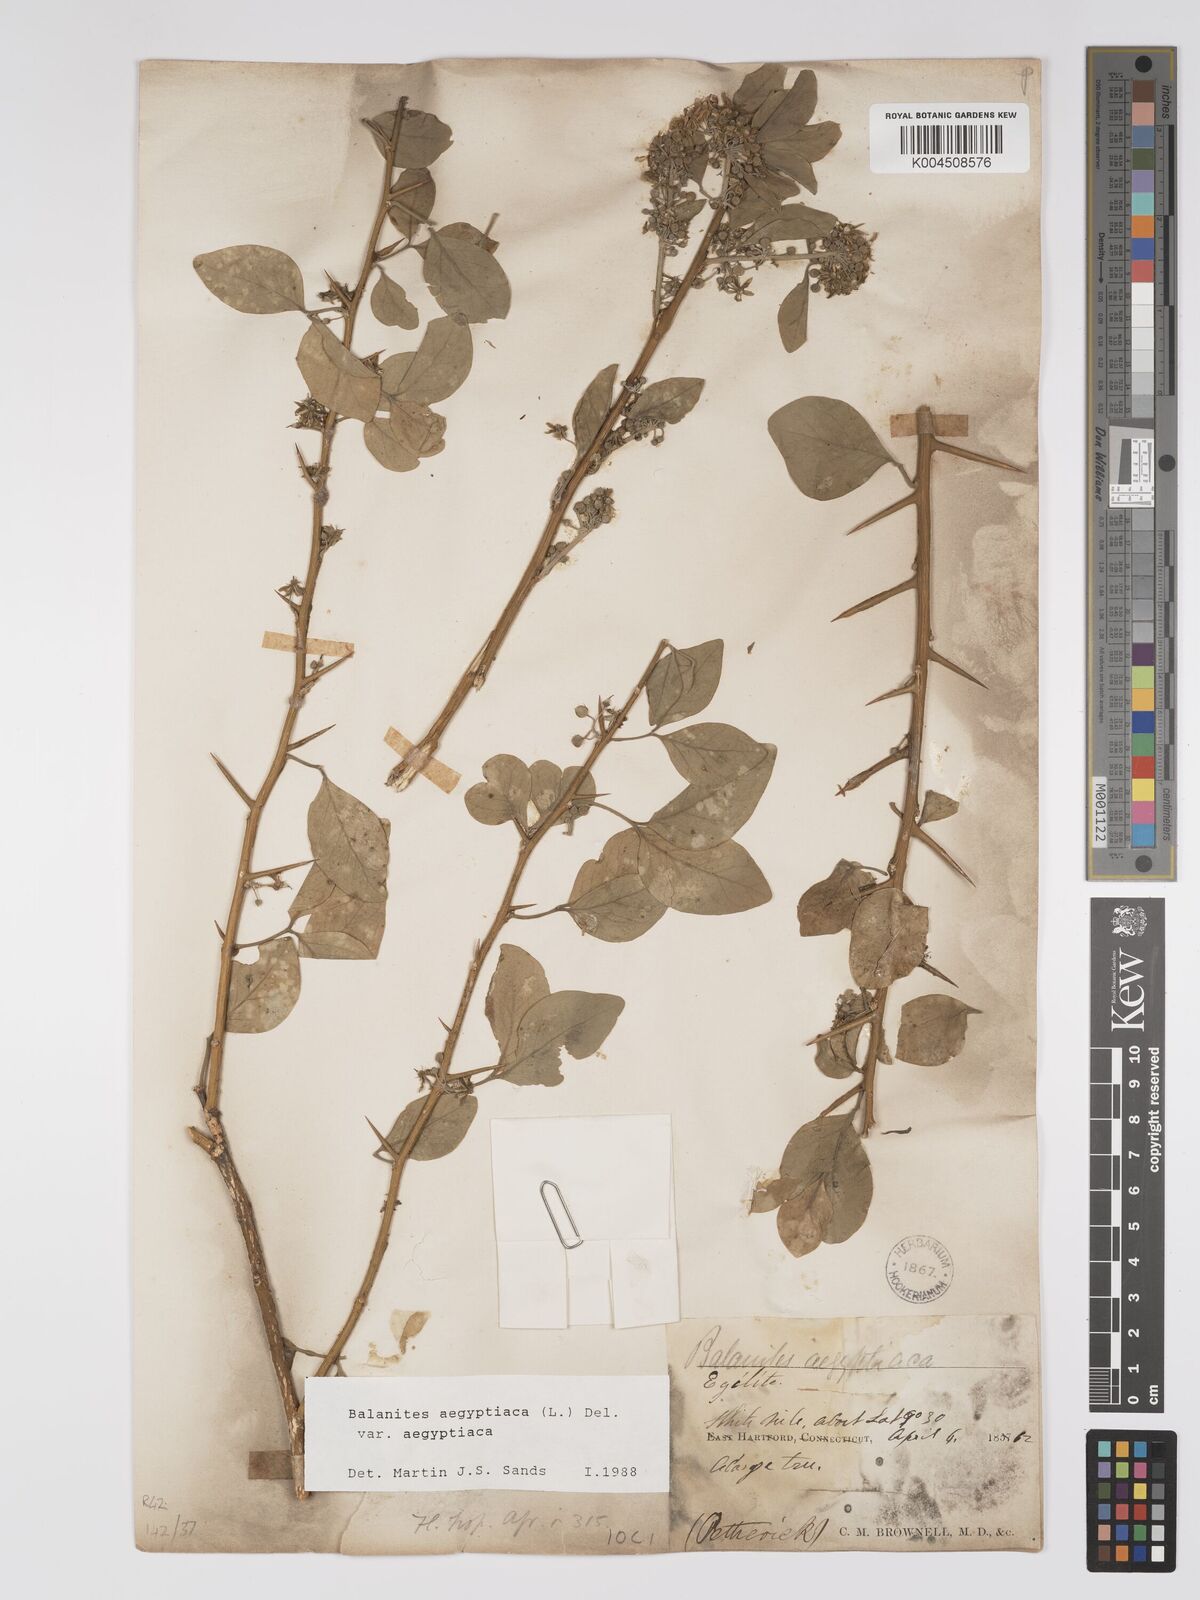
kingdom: Plantae
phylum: Tracheophyta
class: Magnoliopsida
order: Zygophyllales
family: Zygophyllaceae
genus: Balanites
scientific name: Balanites
